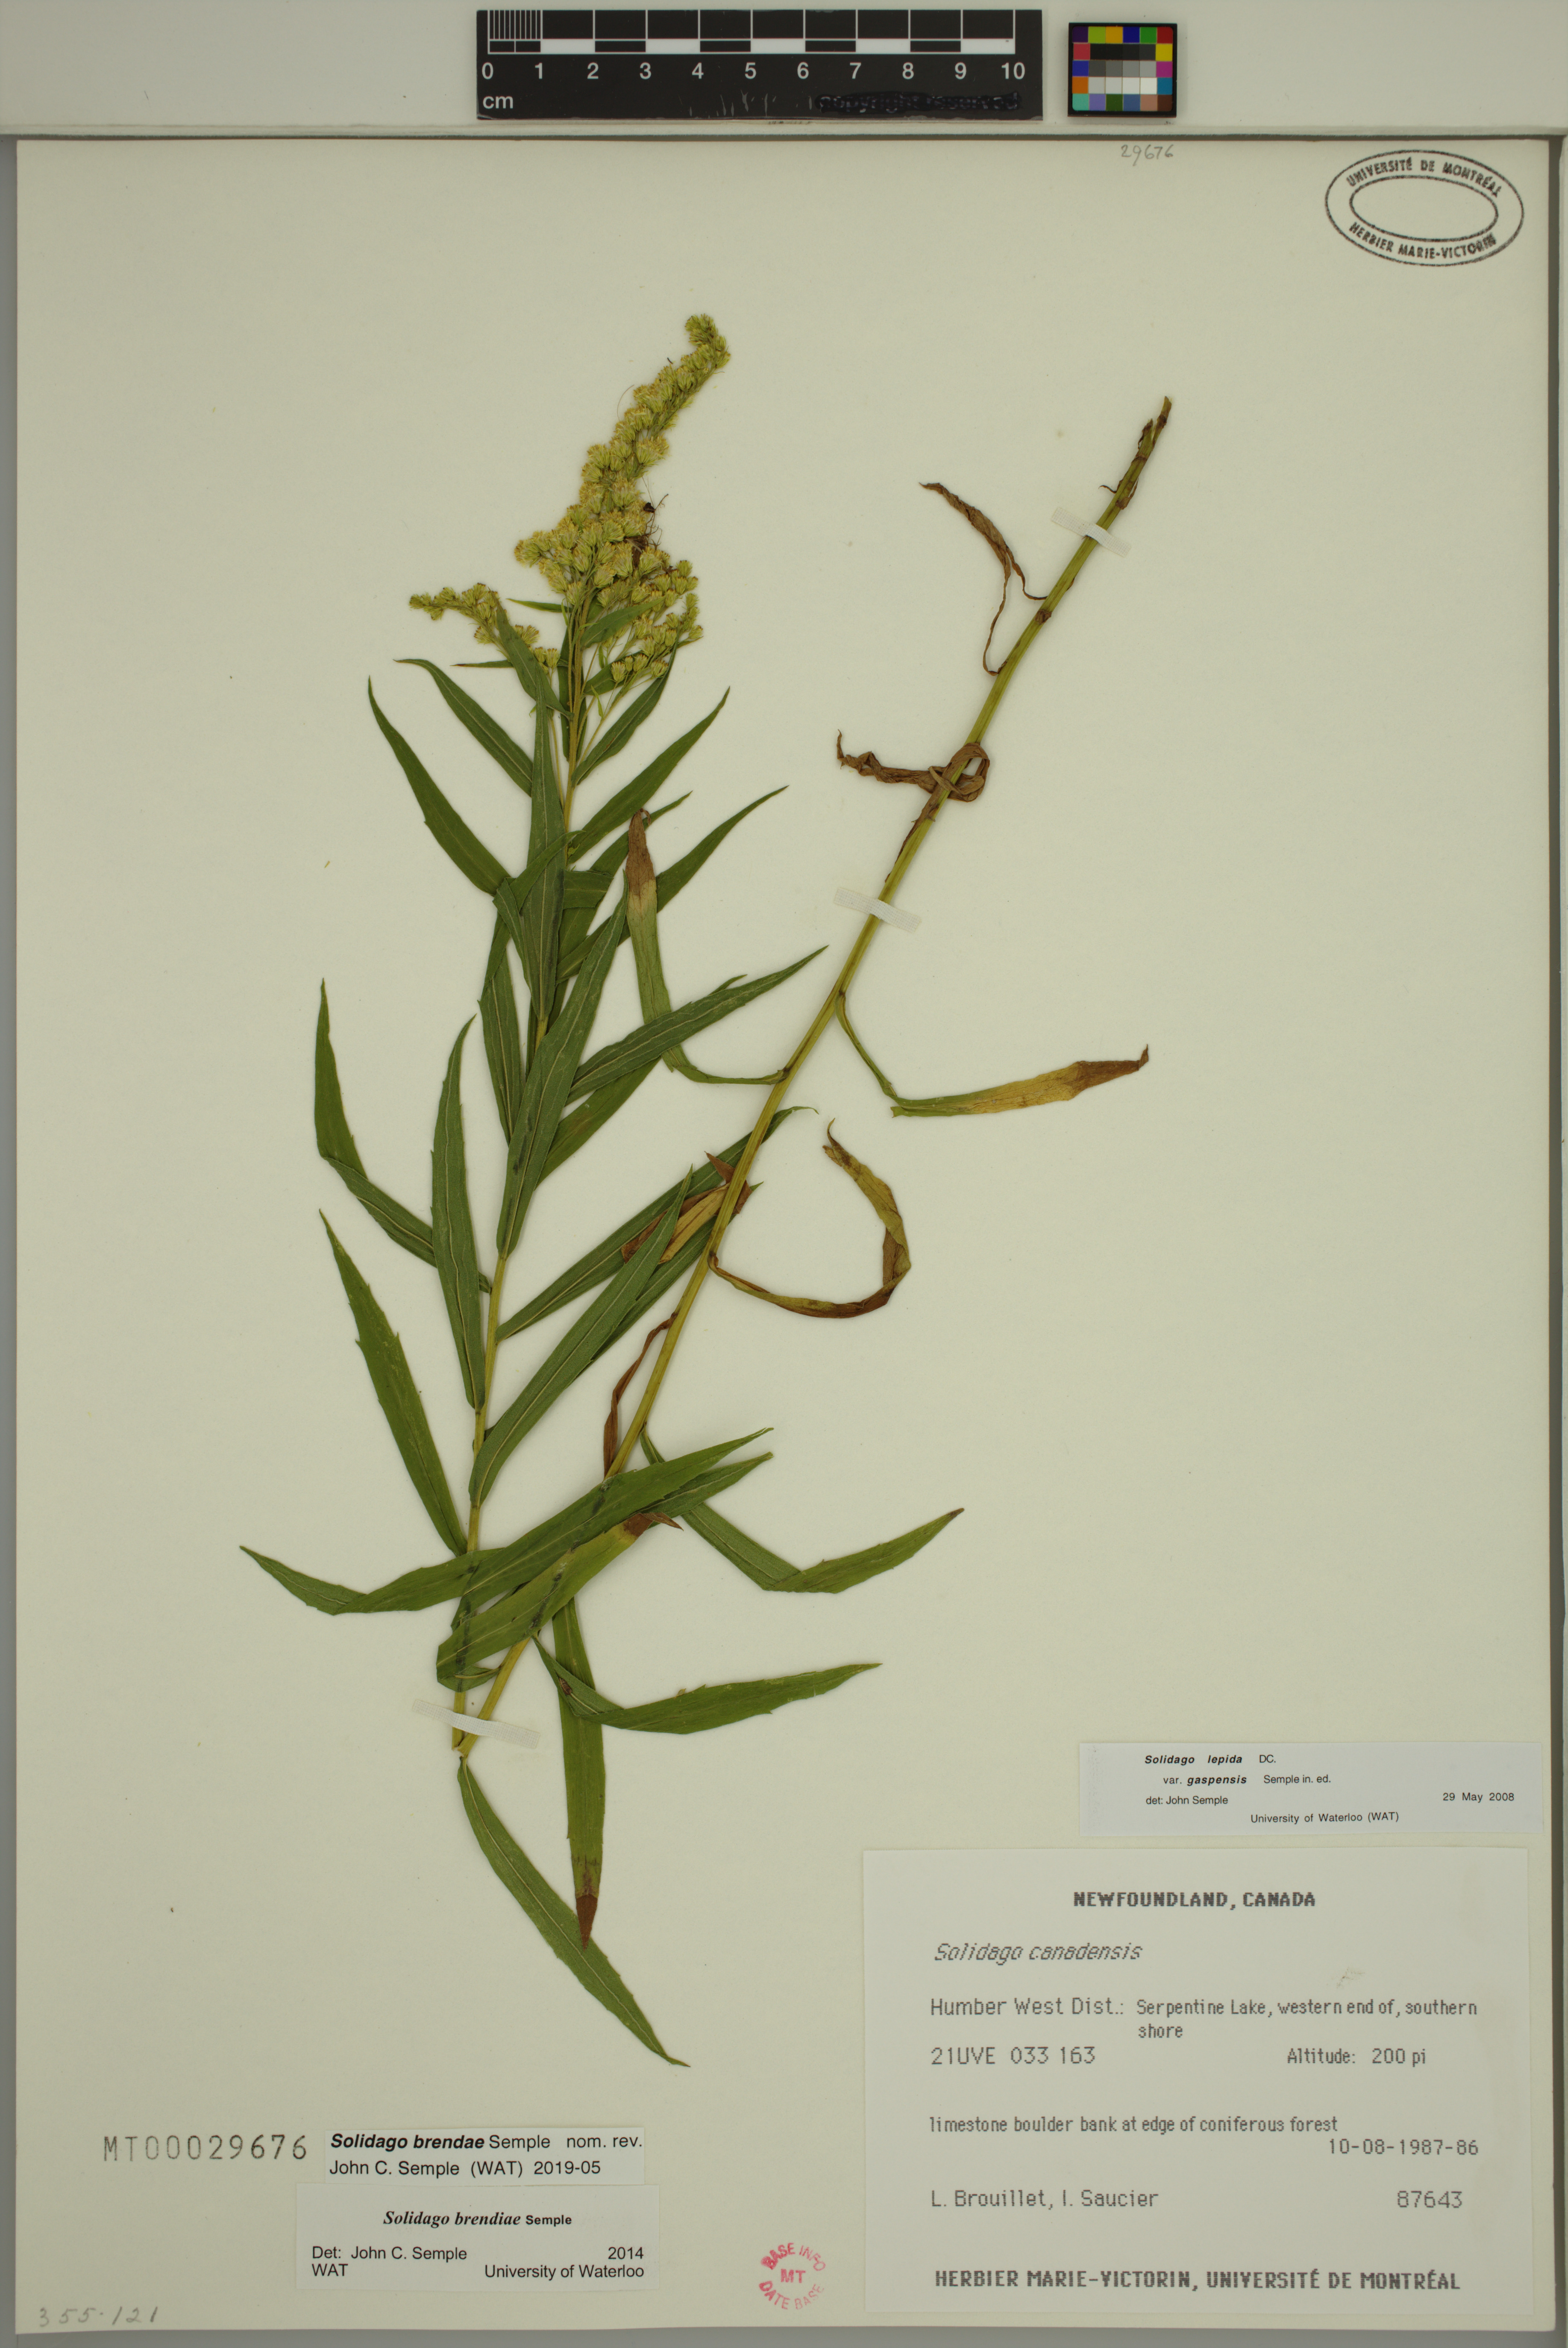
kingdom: Plantae
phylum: Tracheophyta
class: Magnoliopsida
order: Asterales
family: Asteraceae
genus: Solidago
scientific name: Solidago brendae
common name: Brenda's goldenrod
